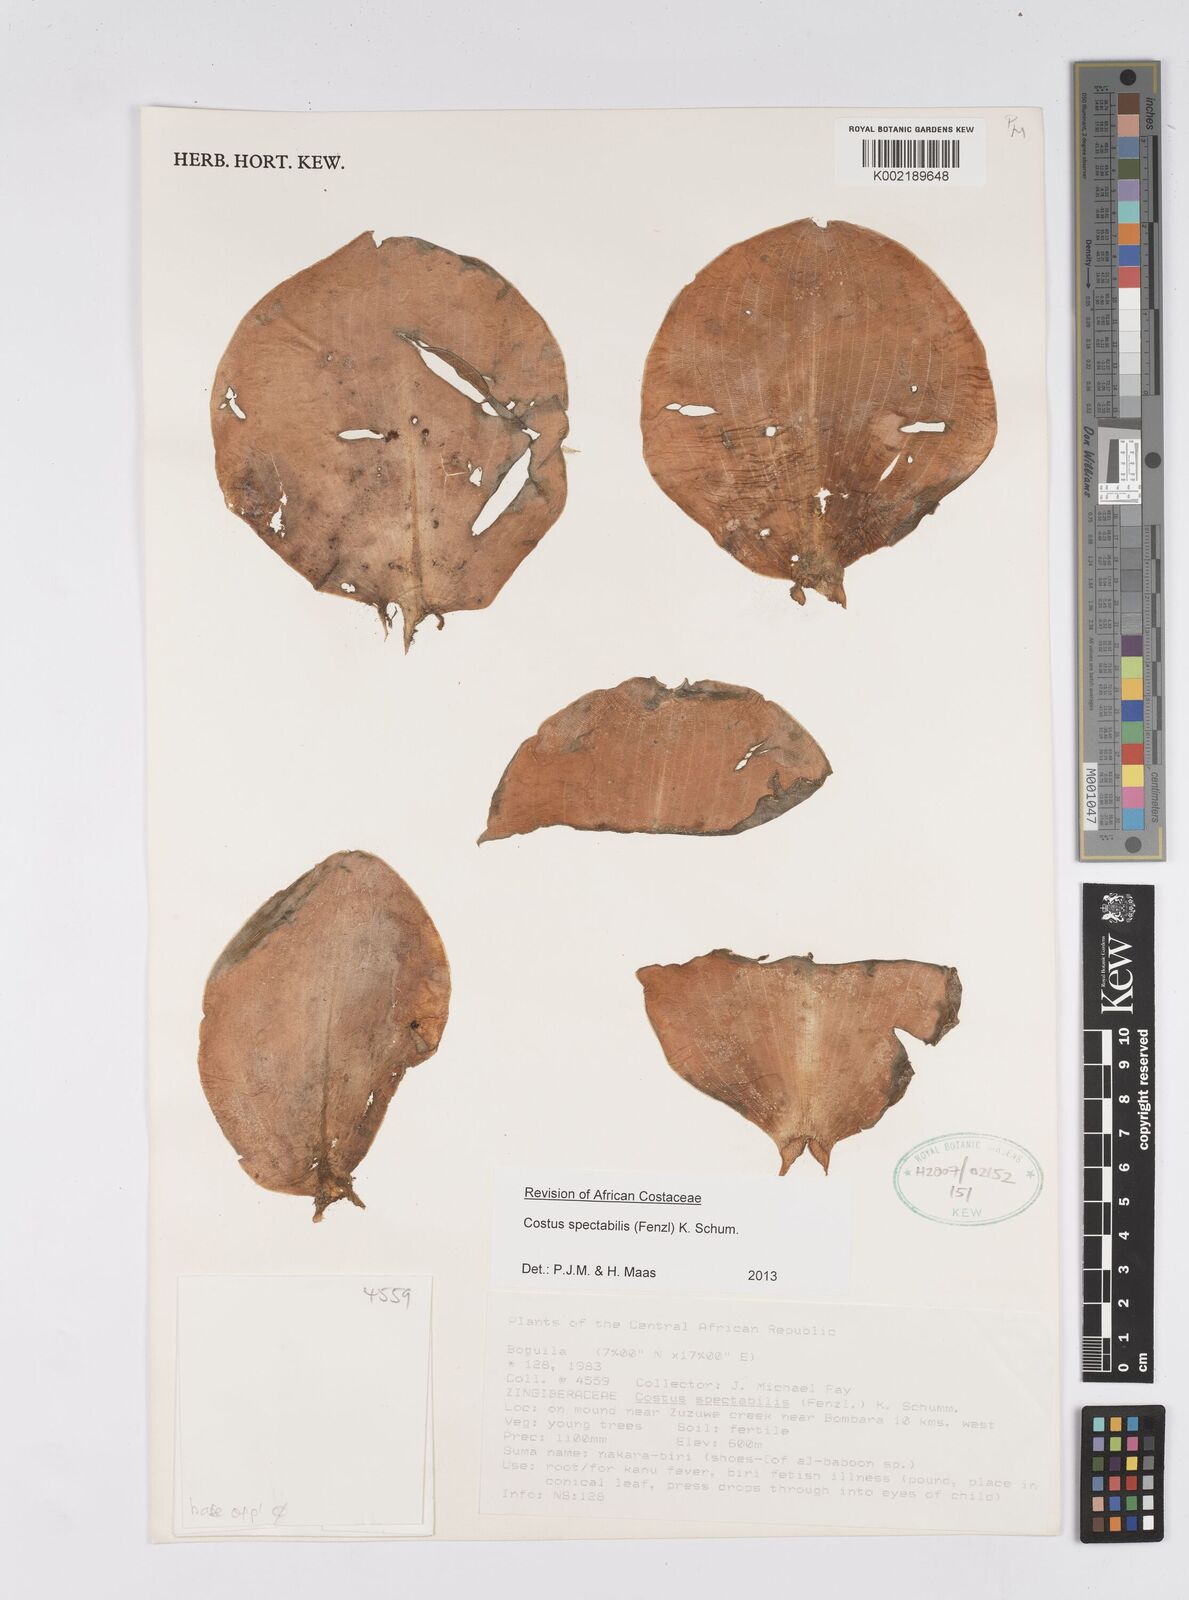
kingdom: Plantae
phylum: Tracheophyta
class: Liliopsida
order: Zingiberales
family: Costaceae
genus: Costus
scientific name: Costus spectabilis
